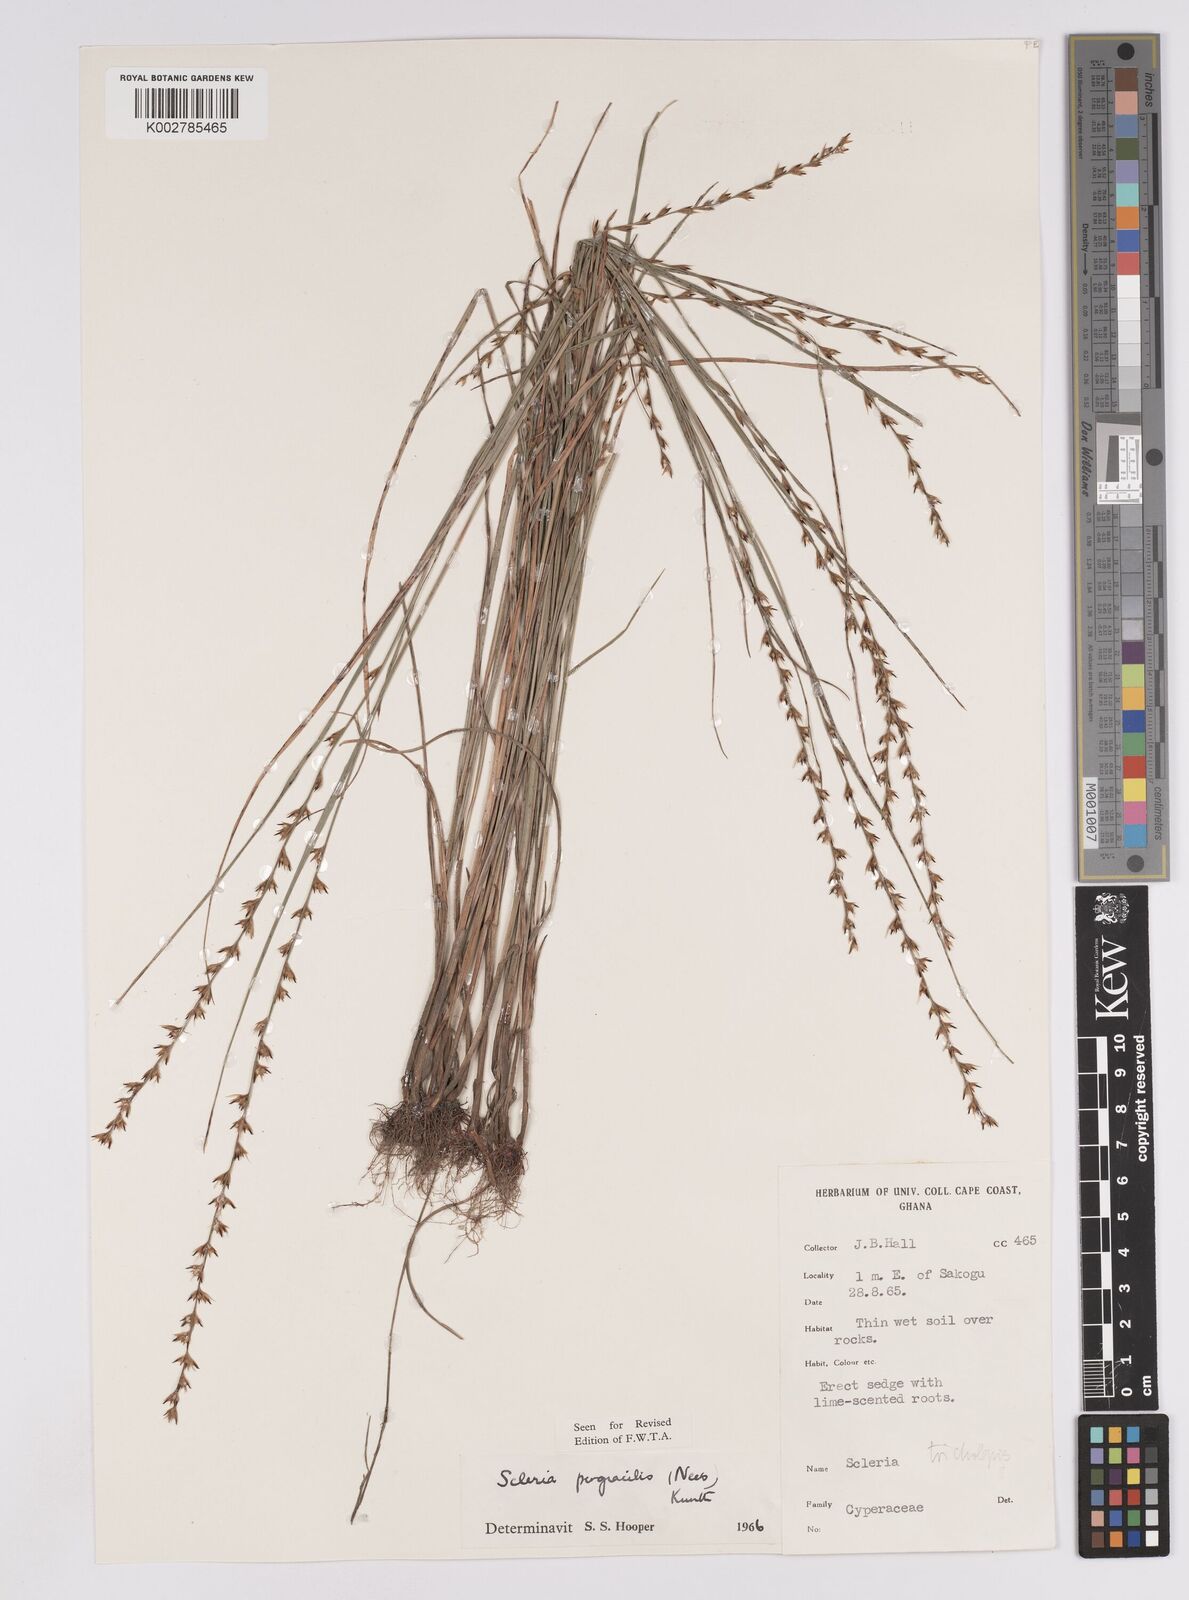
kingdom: Plantae
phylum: Tracheophyta
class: Liliopsida
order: Poales
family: Cyperaceae
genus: Scleria
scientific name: Scleria pergracilis
